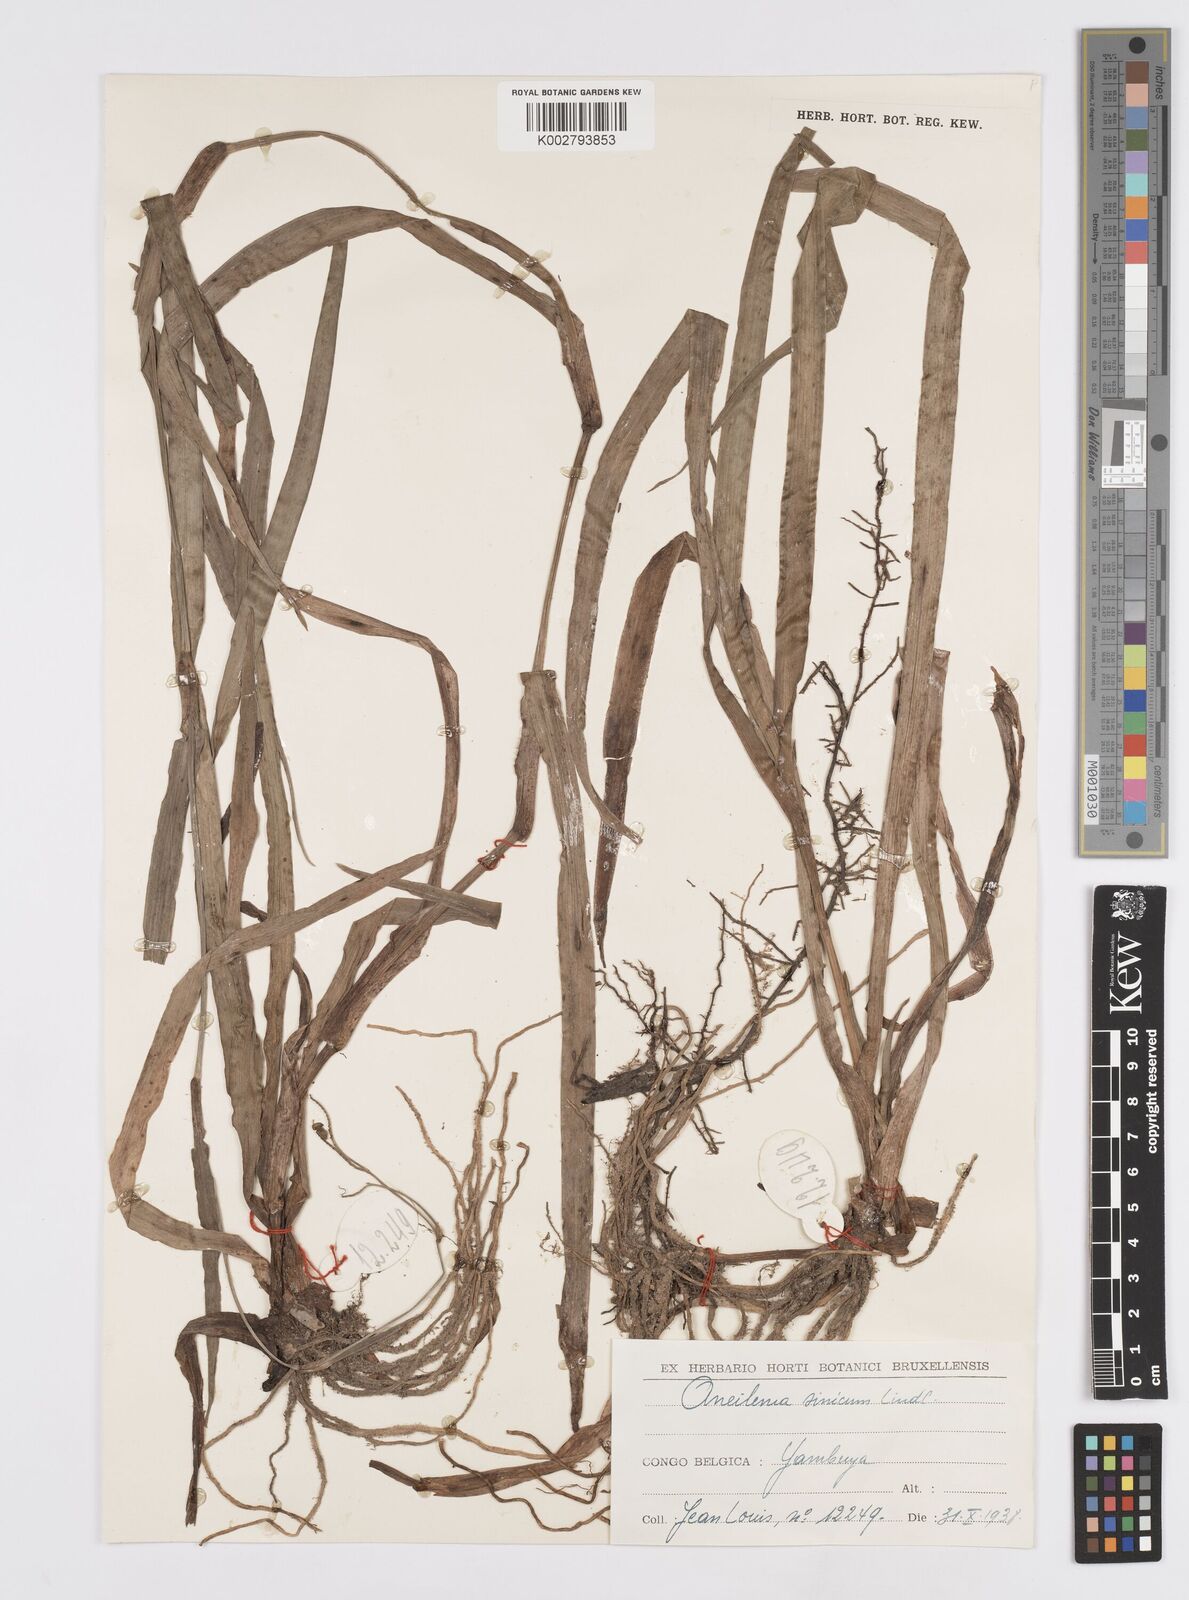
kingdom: Plantae
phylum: Tracheophyta
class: Liliopsida
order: Commelinales
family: Commelinaceae
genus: Murdannia
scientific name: Murdannia simplex
